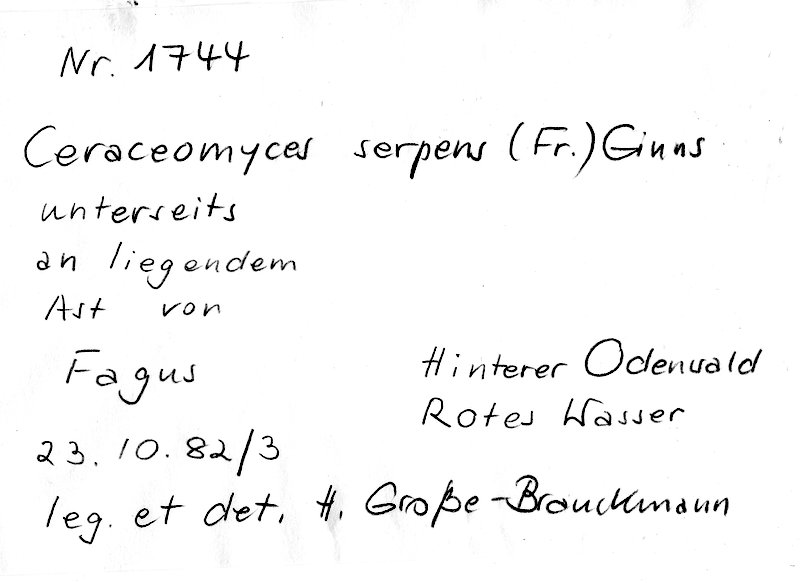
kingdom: Plantae
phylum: Tracheophyta
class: Magnoliopsida
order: Fagales
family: Fagaceae
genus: Fagus
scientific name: Fagus sylvatica
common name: Beech
